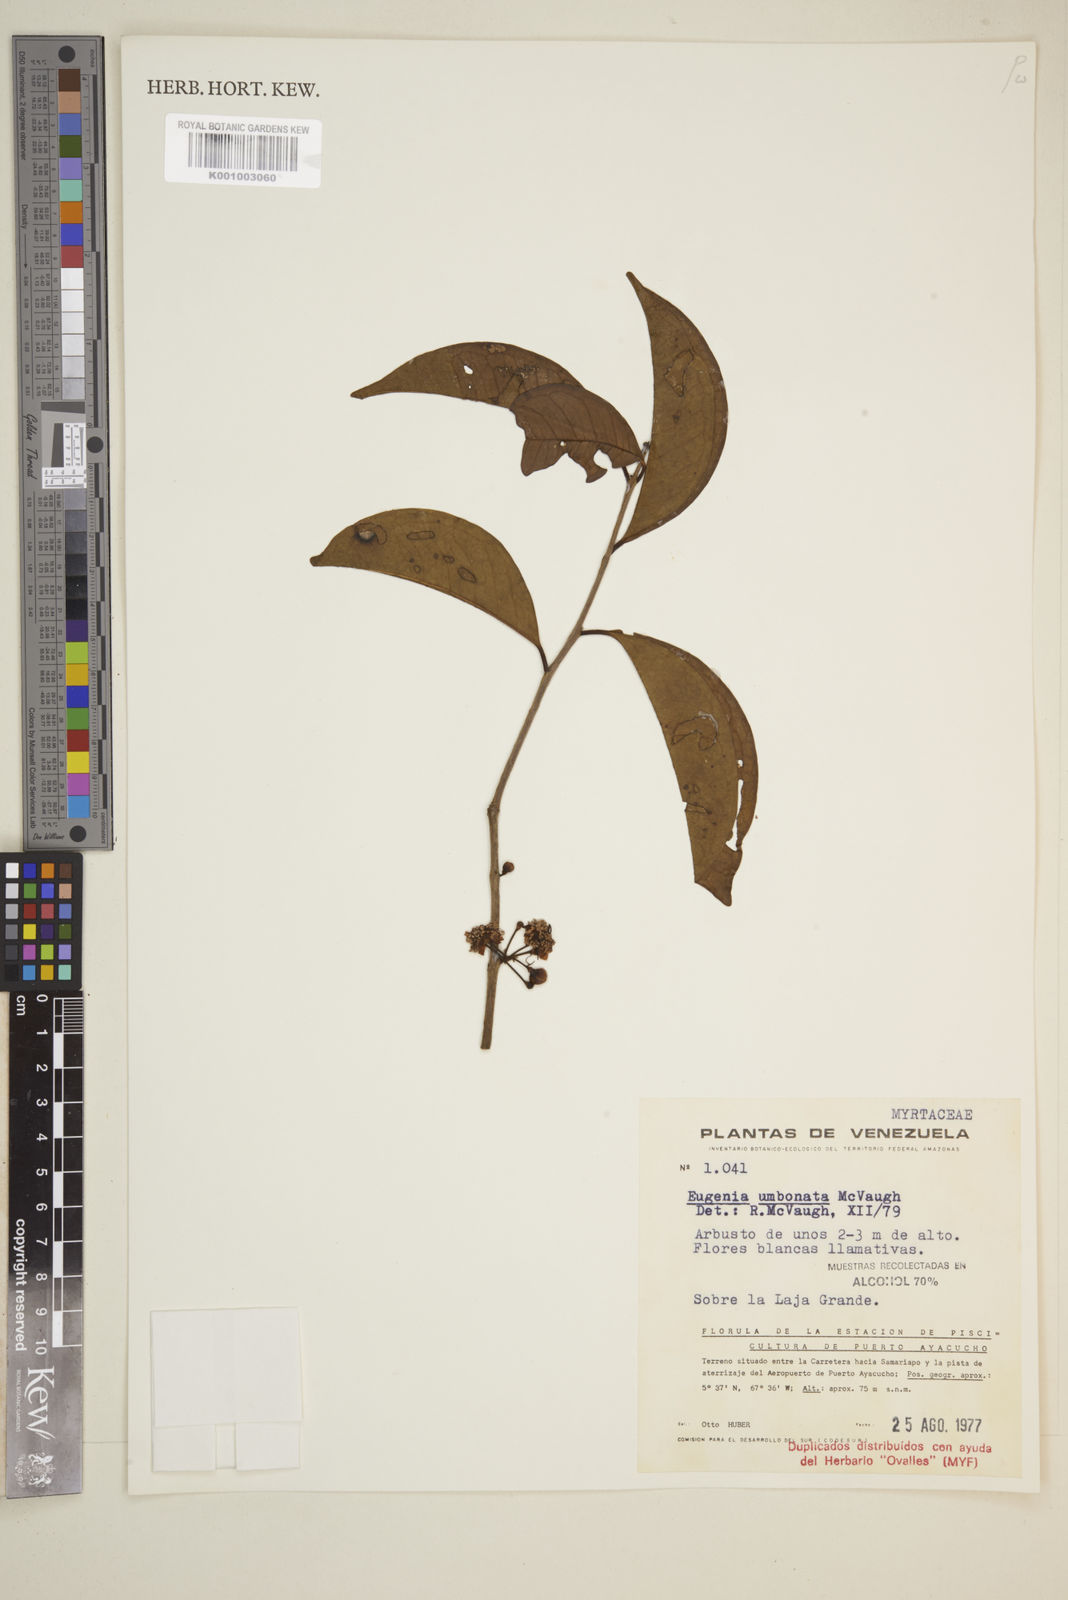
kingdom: Plantae
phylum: Tracheophyta
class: Magnoliopsida
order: Myrtales
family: Myrtaceae
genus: Eugenia
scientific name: Eugenia umbonata
